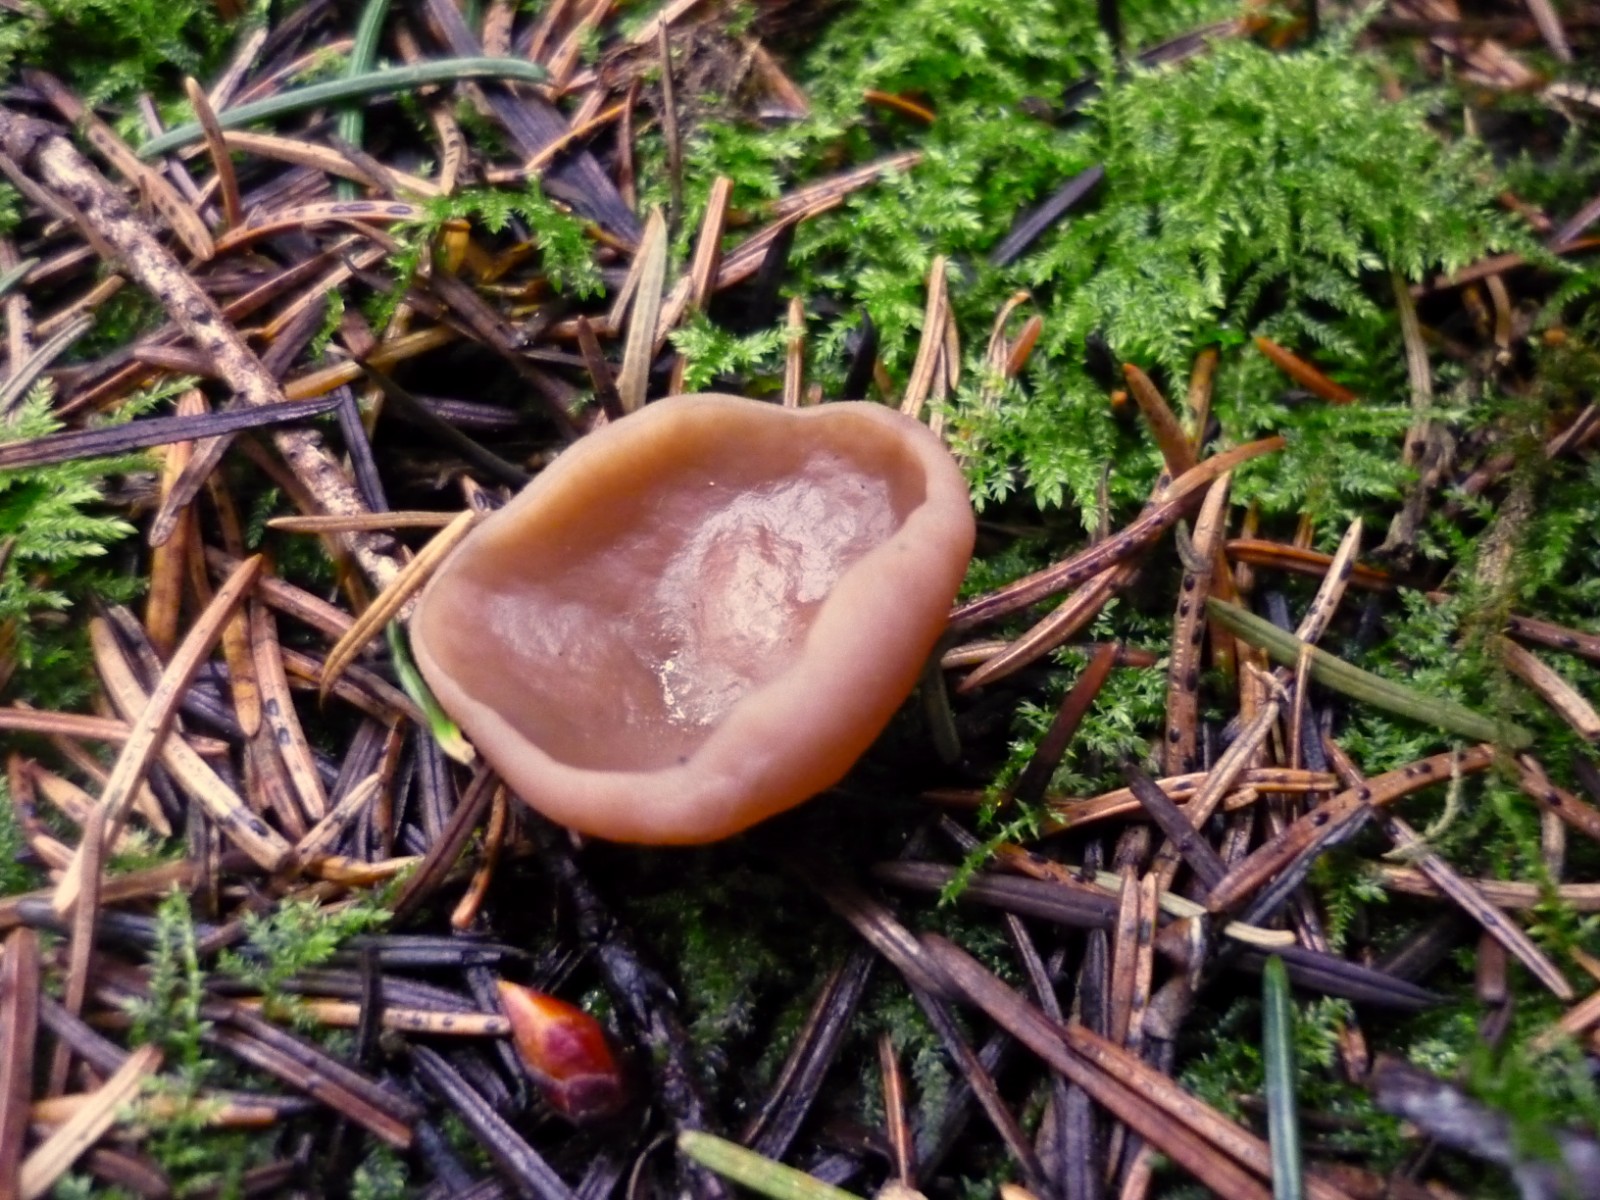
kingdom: Fungi
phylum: Ascomycota
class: Pezizomycetes
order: Pezizales
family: Discinaceae
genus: Discina
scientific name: Discina ancilis
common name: udbredt stenmorkel
